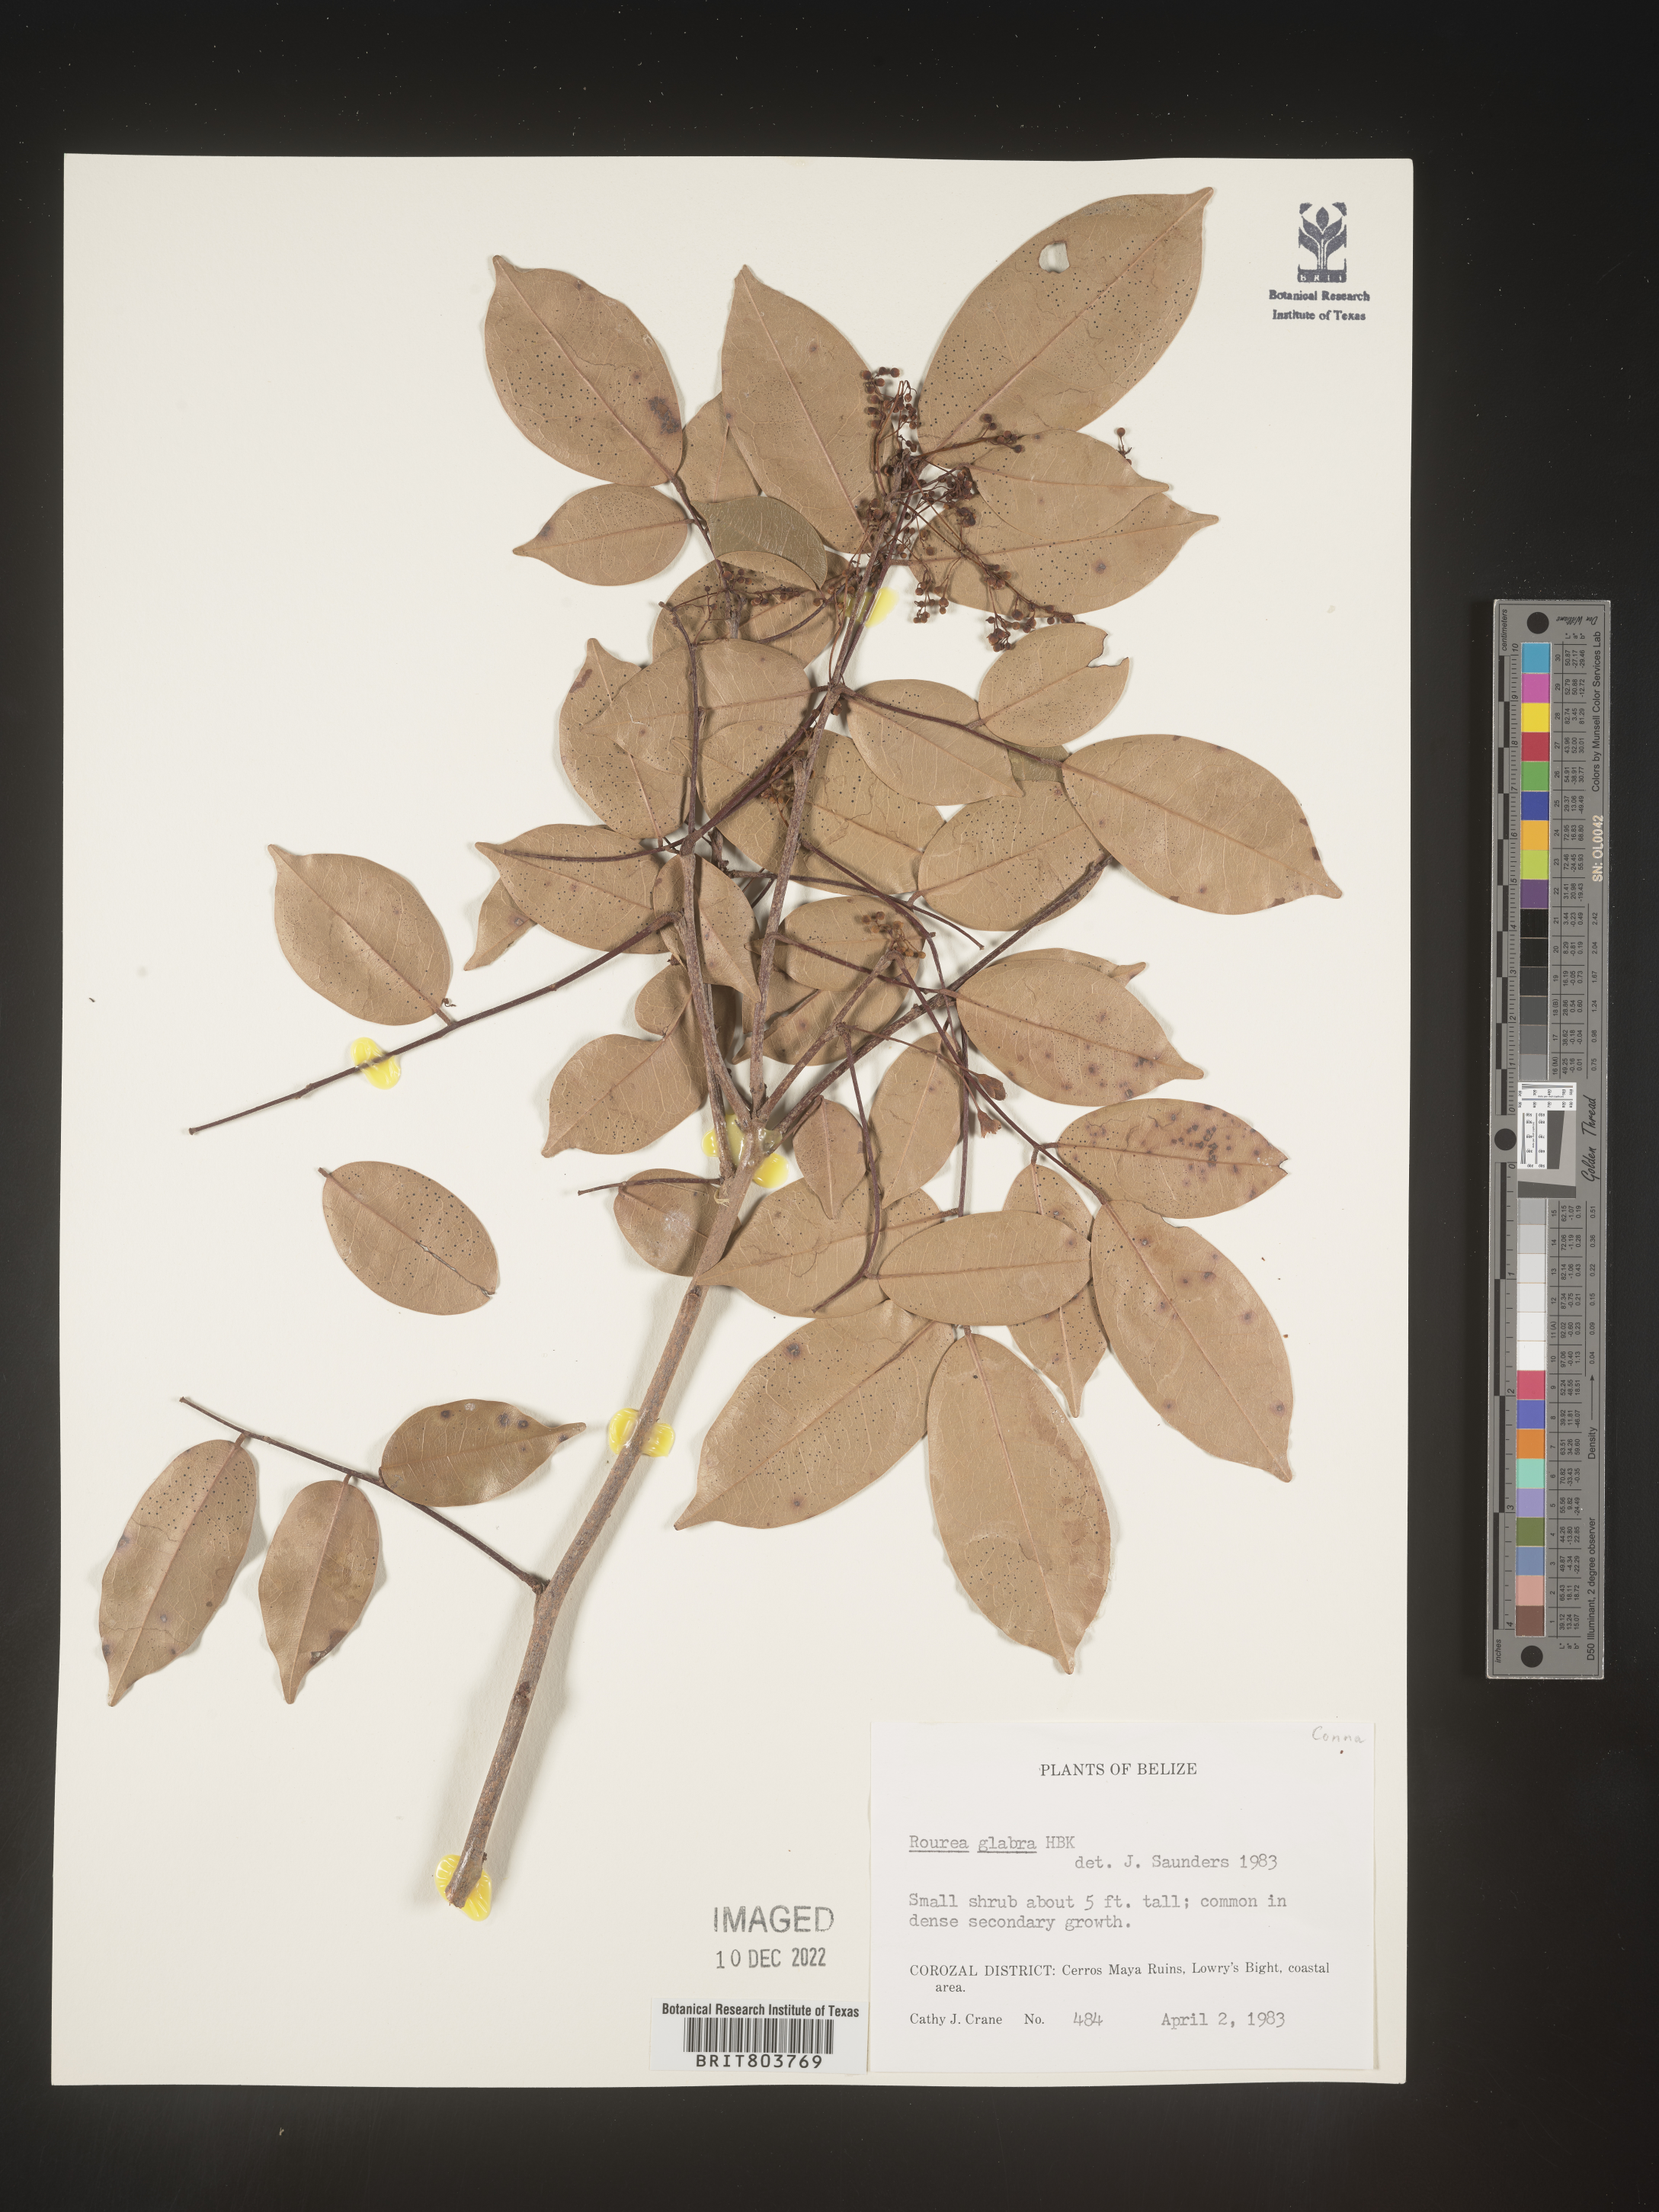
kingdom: Plantae
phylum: Tracheophyta
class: Magnoliopsida
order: Oxalidales
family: Connaraceae
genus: Rourea
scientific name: Rourea
